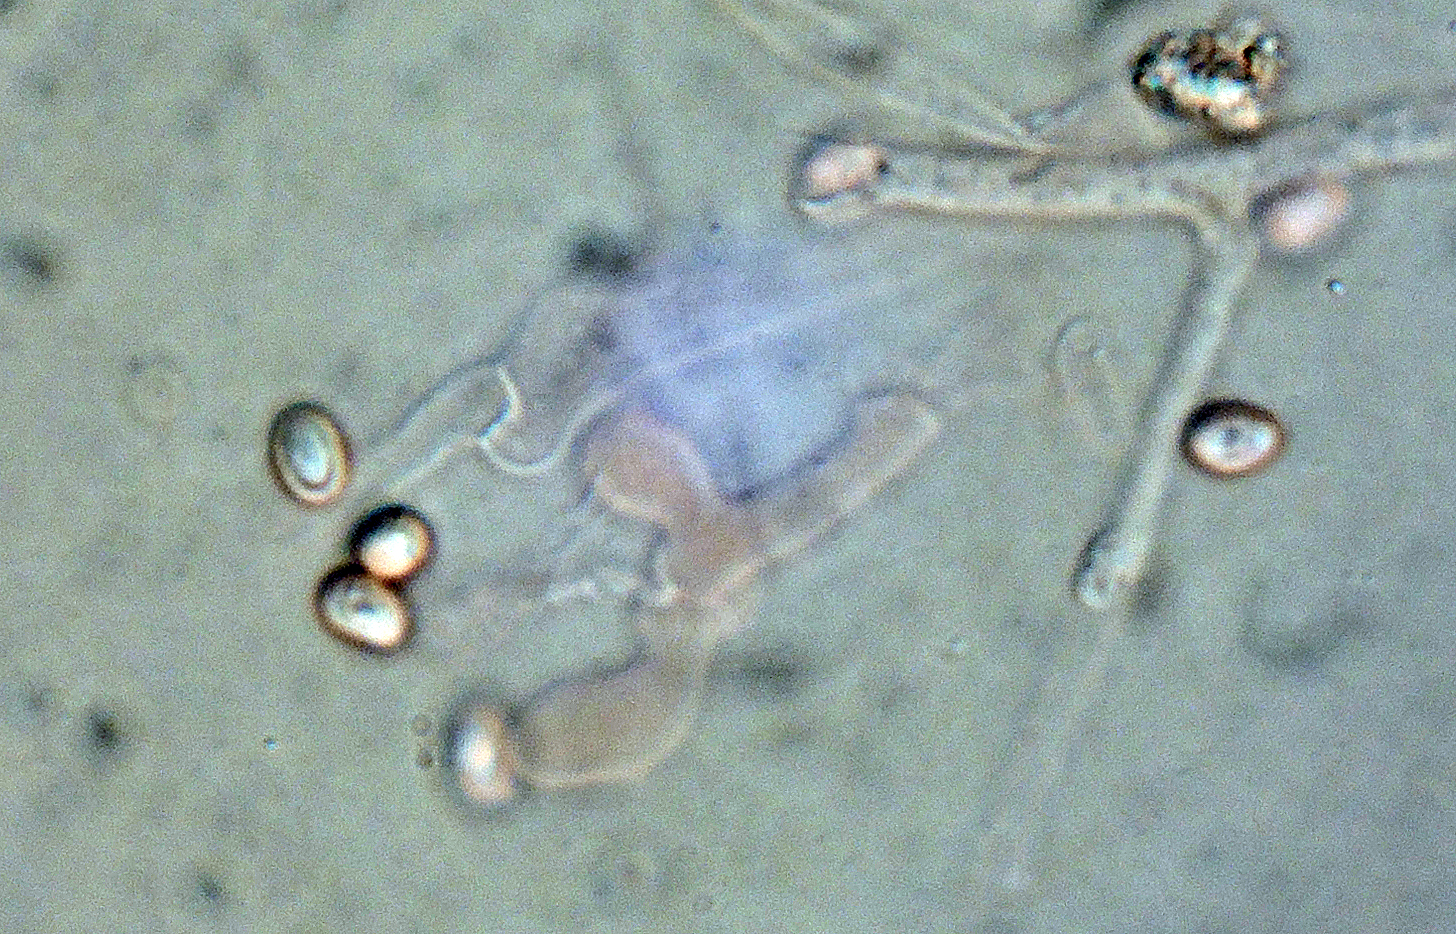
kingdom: Fungi
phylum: Basidiomycota
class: Agaricomycetes
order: Boletales
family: Coniophoraceae
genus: Penttilamyces
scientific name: Penttilamyces romellii
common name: Romells hussvamp
